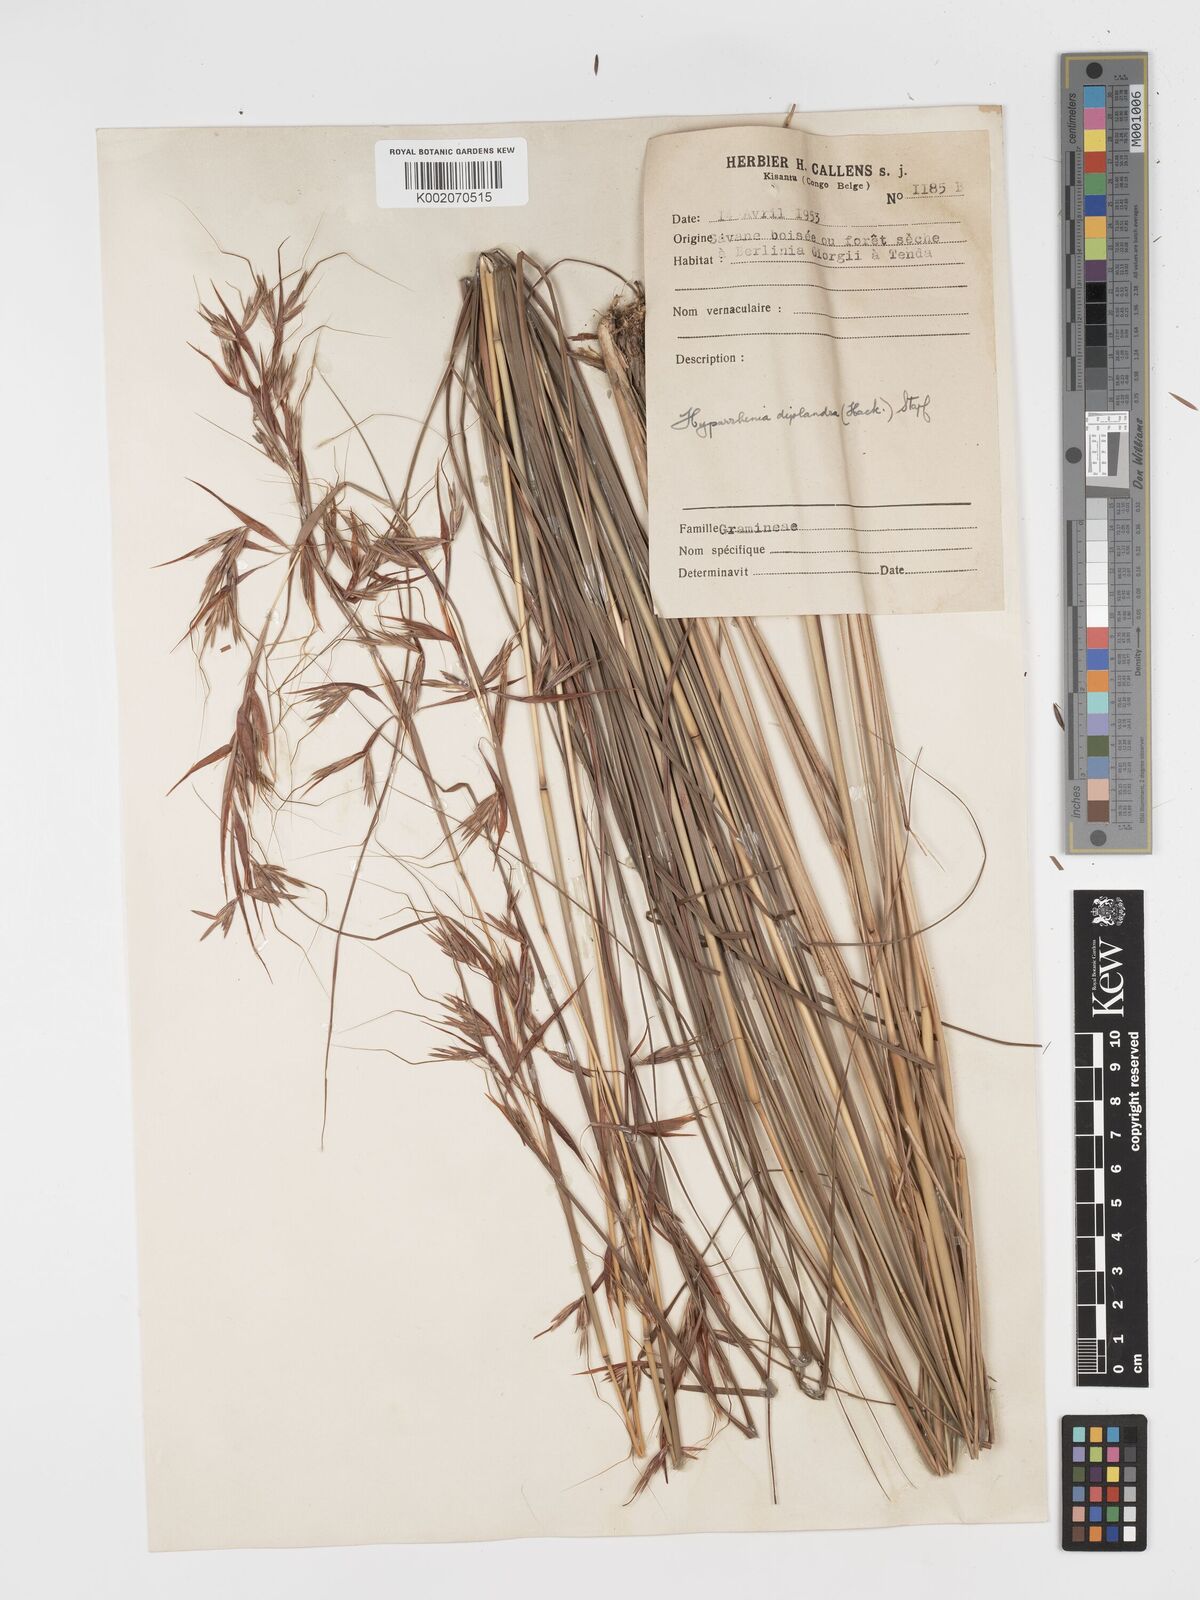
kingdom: Plantae
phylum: Tracheophyta
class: Liliopsida
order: Poales
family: Poaceae
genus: Hyparrhenia
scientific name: Hyparrhenia diplandra
